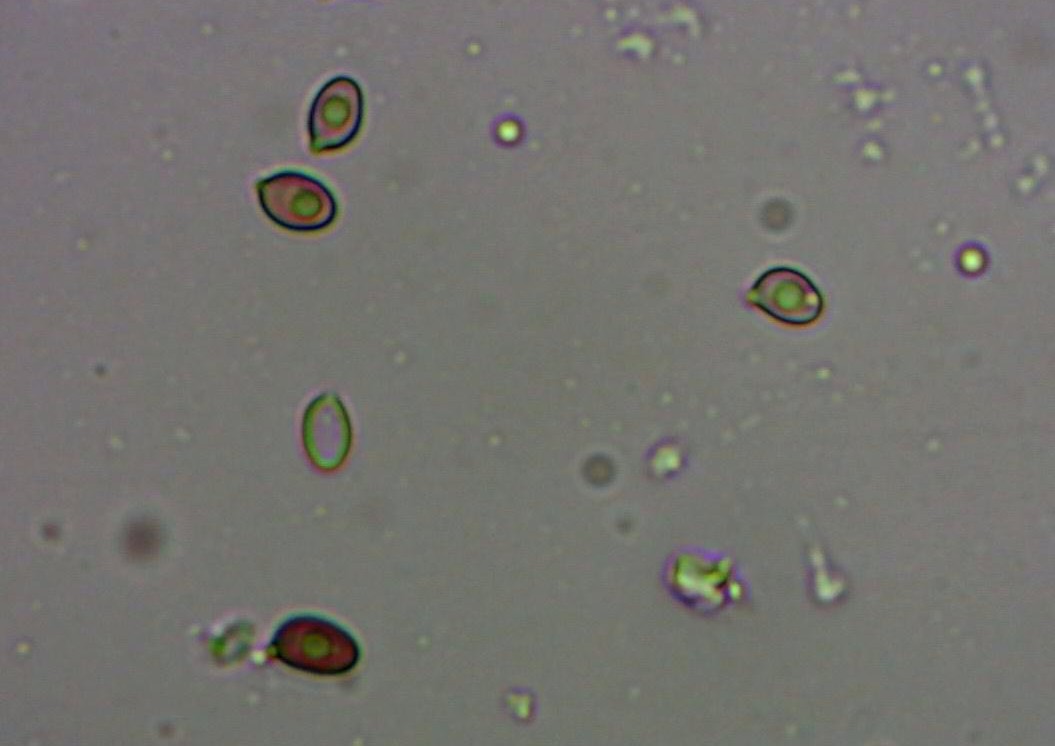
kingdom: Fungi
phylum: Basidiomycota
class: Agaricomycetes
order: Agaricales
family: Agaricaceae
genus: Agaricus
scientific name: Agaricus
